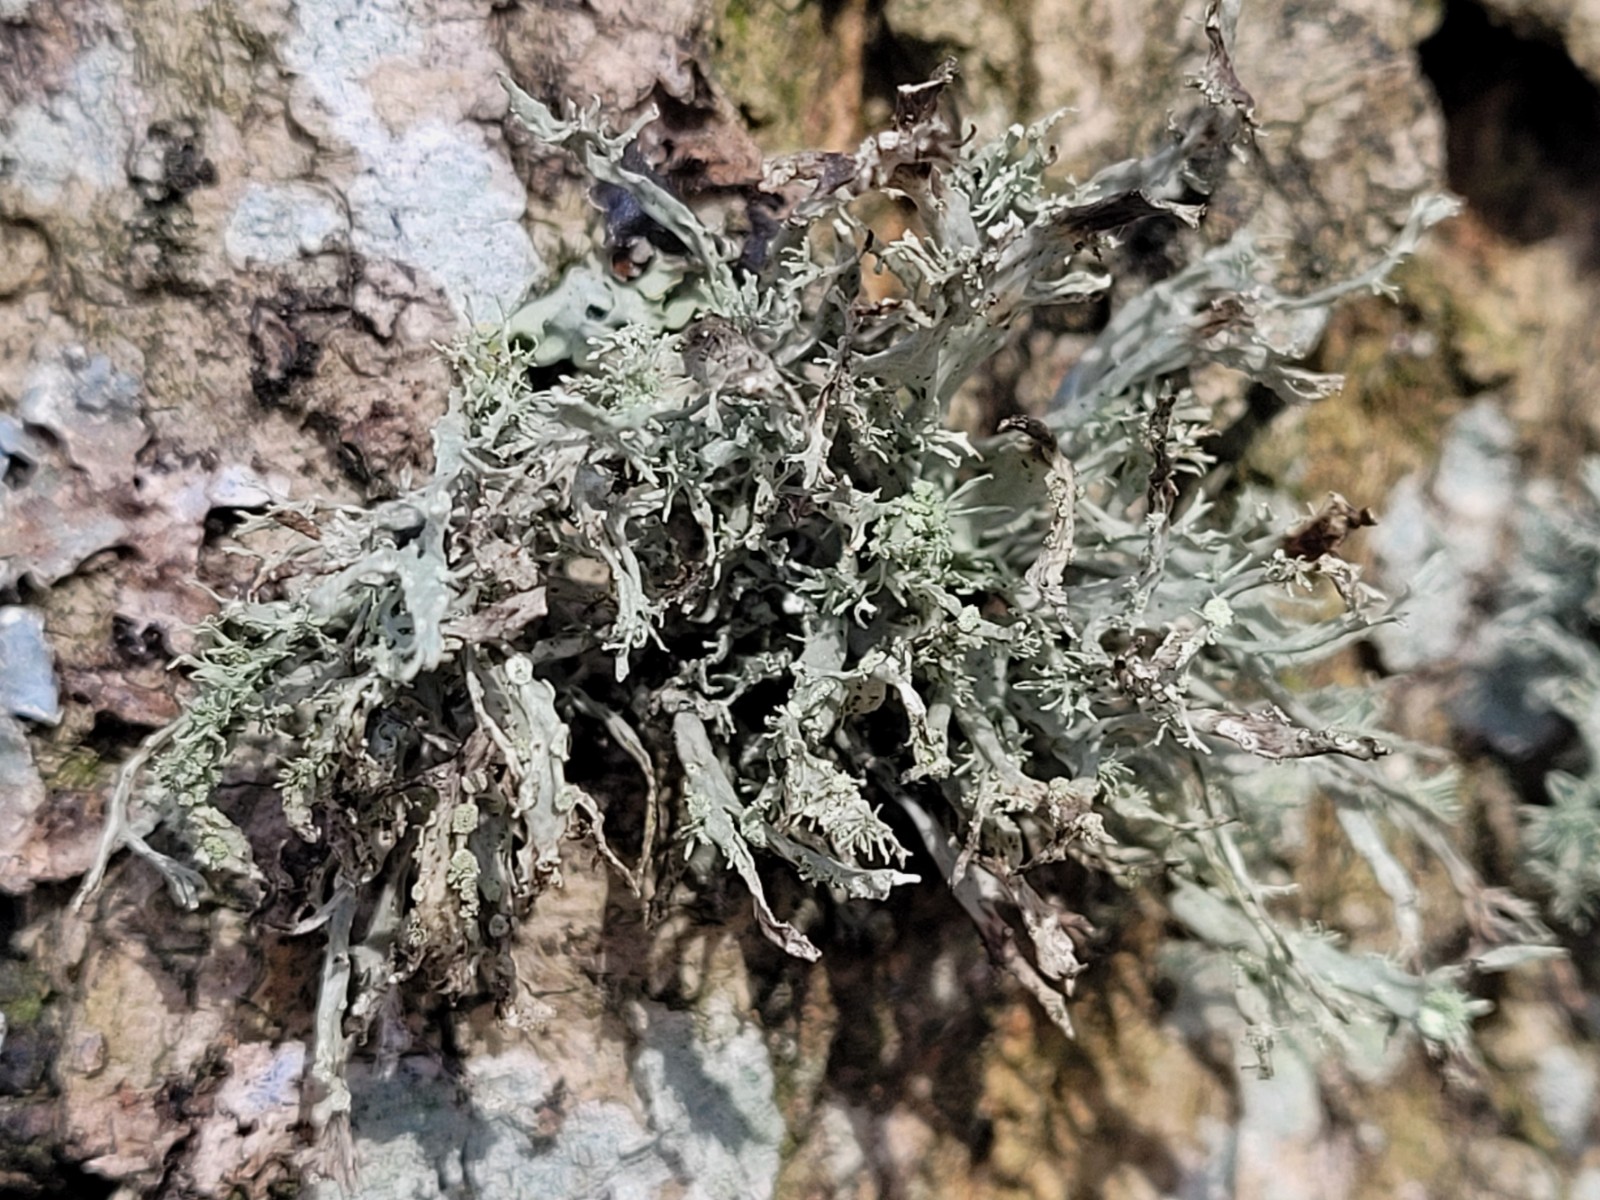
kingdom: Fungi
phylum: Ascomycota
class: Lecanoromycetes
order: Lecanorales
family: Ramalinaceae
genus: Ramalina
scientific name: Ramalina farinacea
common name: melet grenlav
